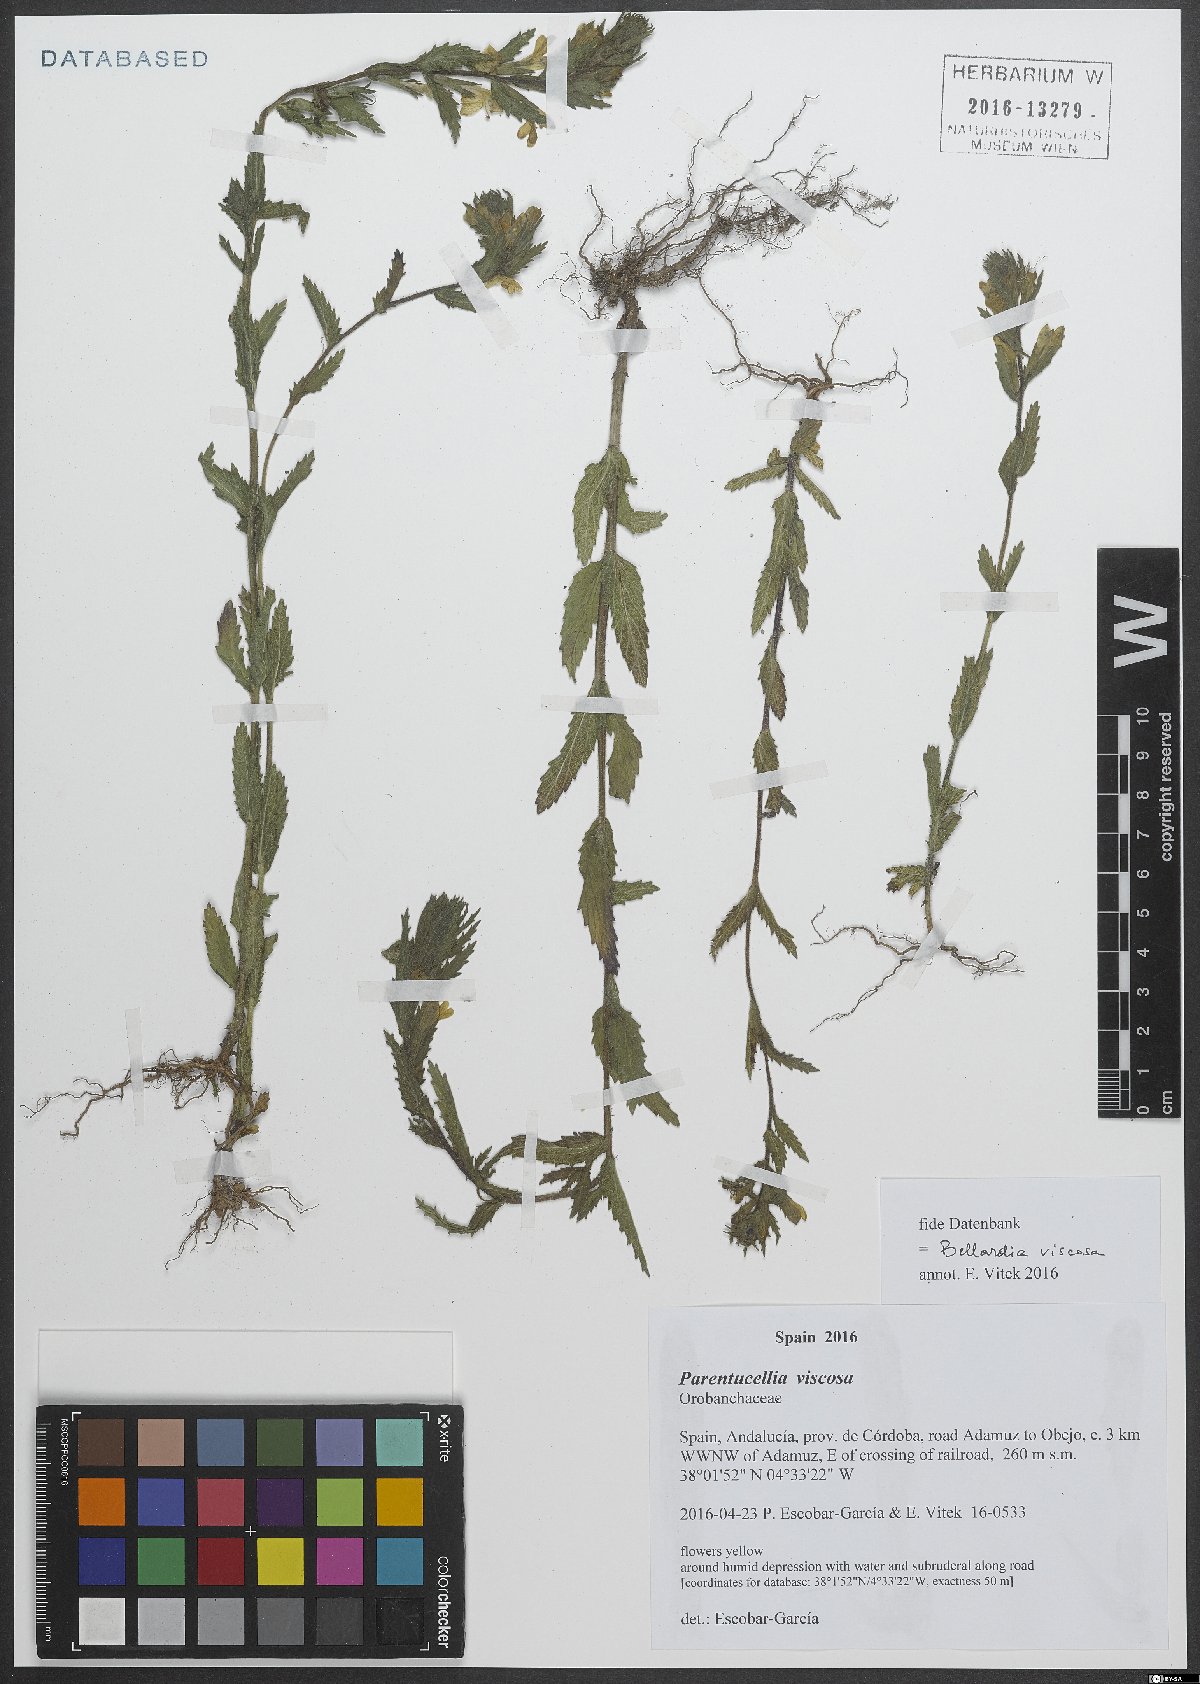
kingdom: Plantae
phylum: Tracheophyta
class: Magnoliopsida
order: Lamiales
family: Orobanchaceae
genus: Bellardia
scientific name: Bellardia viscosa
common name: Sticky parentucellia
